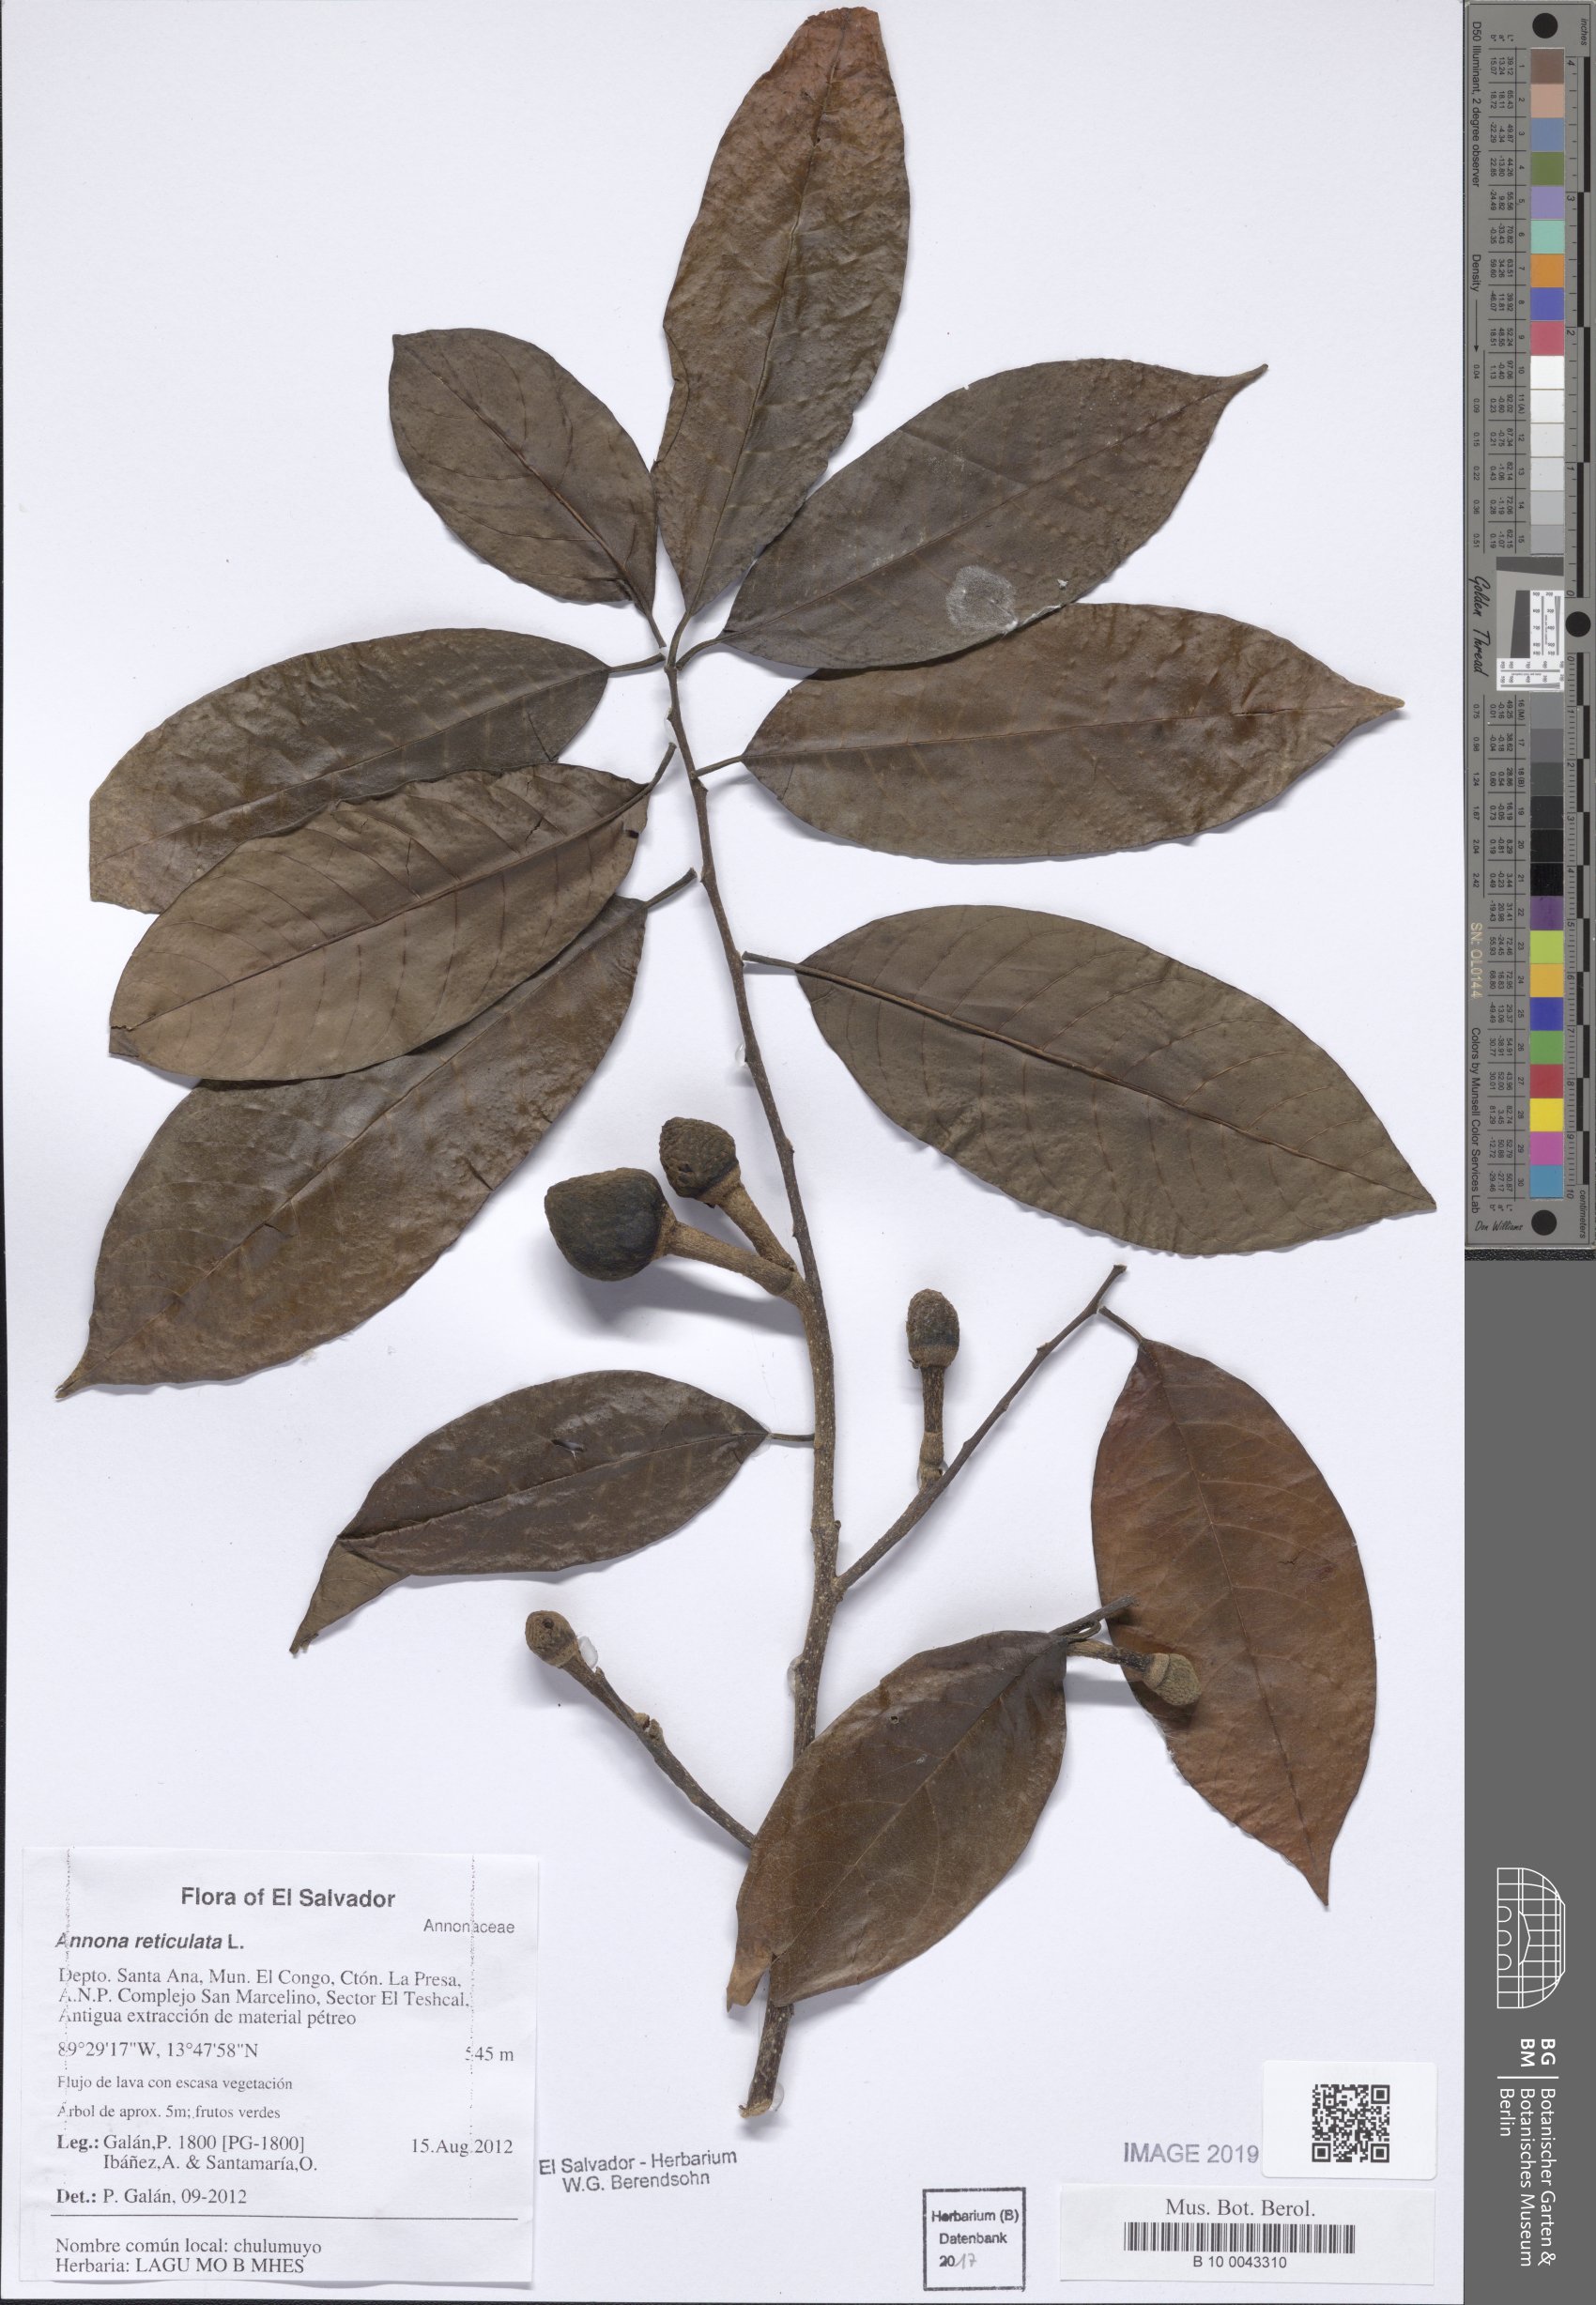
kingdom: Plantae
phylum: Tracheophyta
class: Magnoliopsida
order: Magnoliales
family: Annonaceae
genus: Annona
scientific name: Annona reticulata
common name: Custard apple
